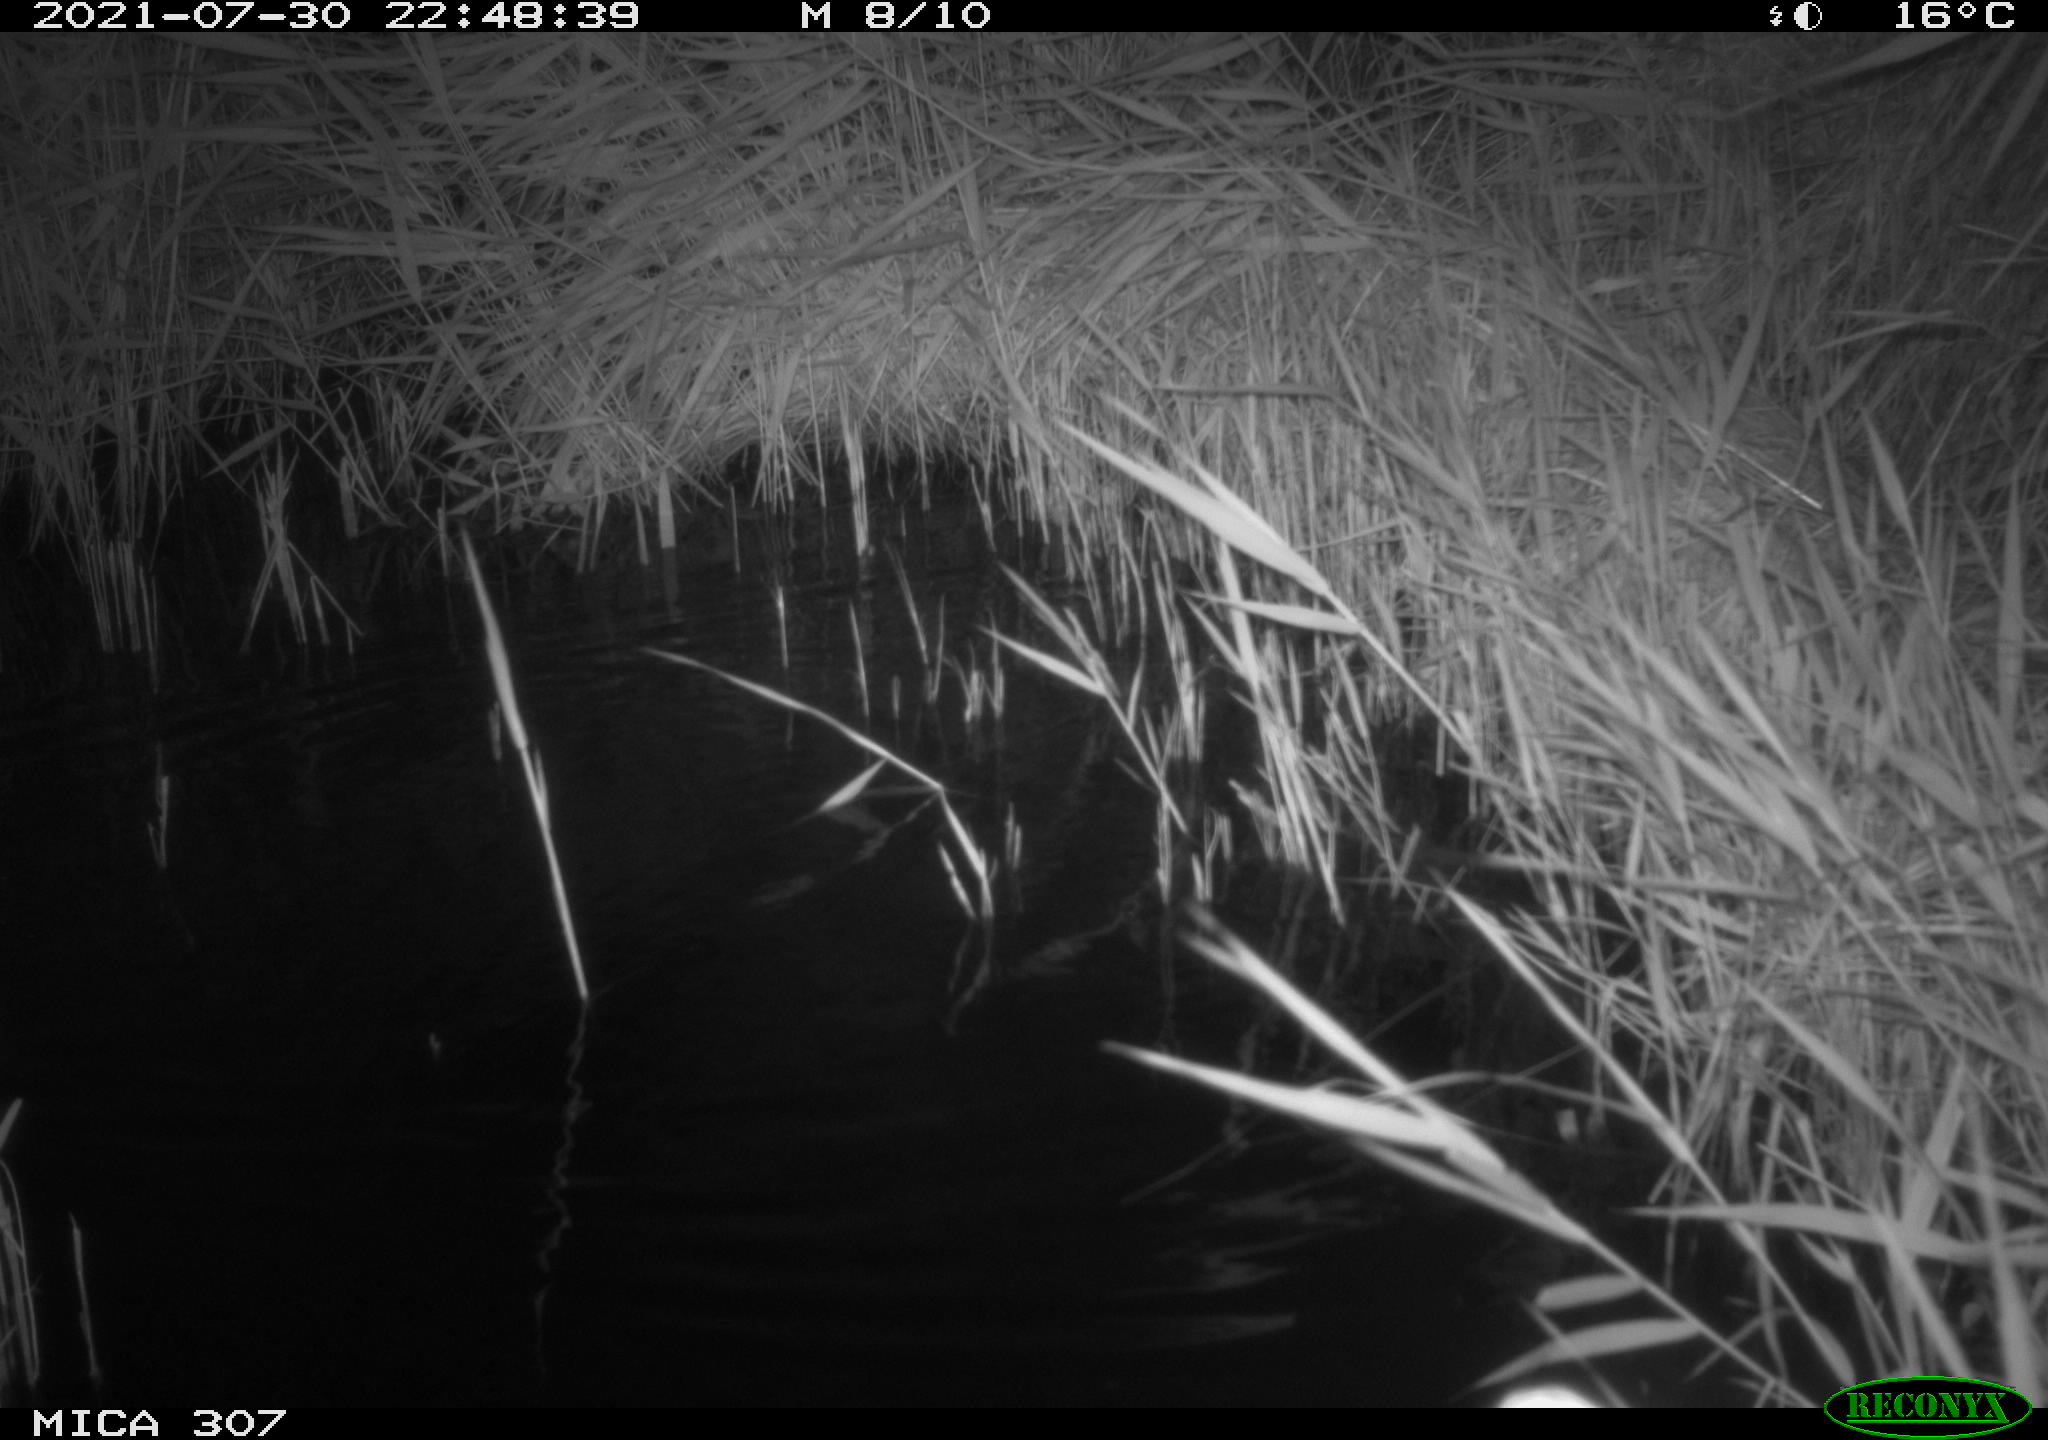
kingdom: Animalia
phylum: Chordata
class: Mammalia
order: Rodentia
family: Muridae
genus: Rattus
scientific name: Rattus norvegicus
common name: Brown rat
